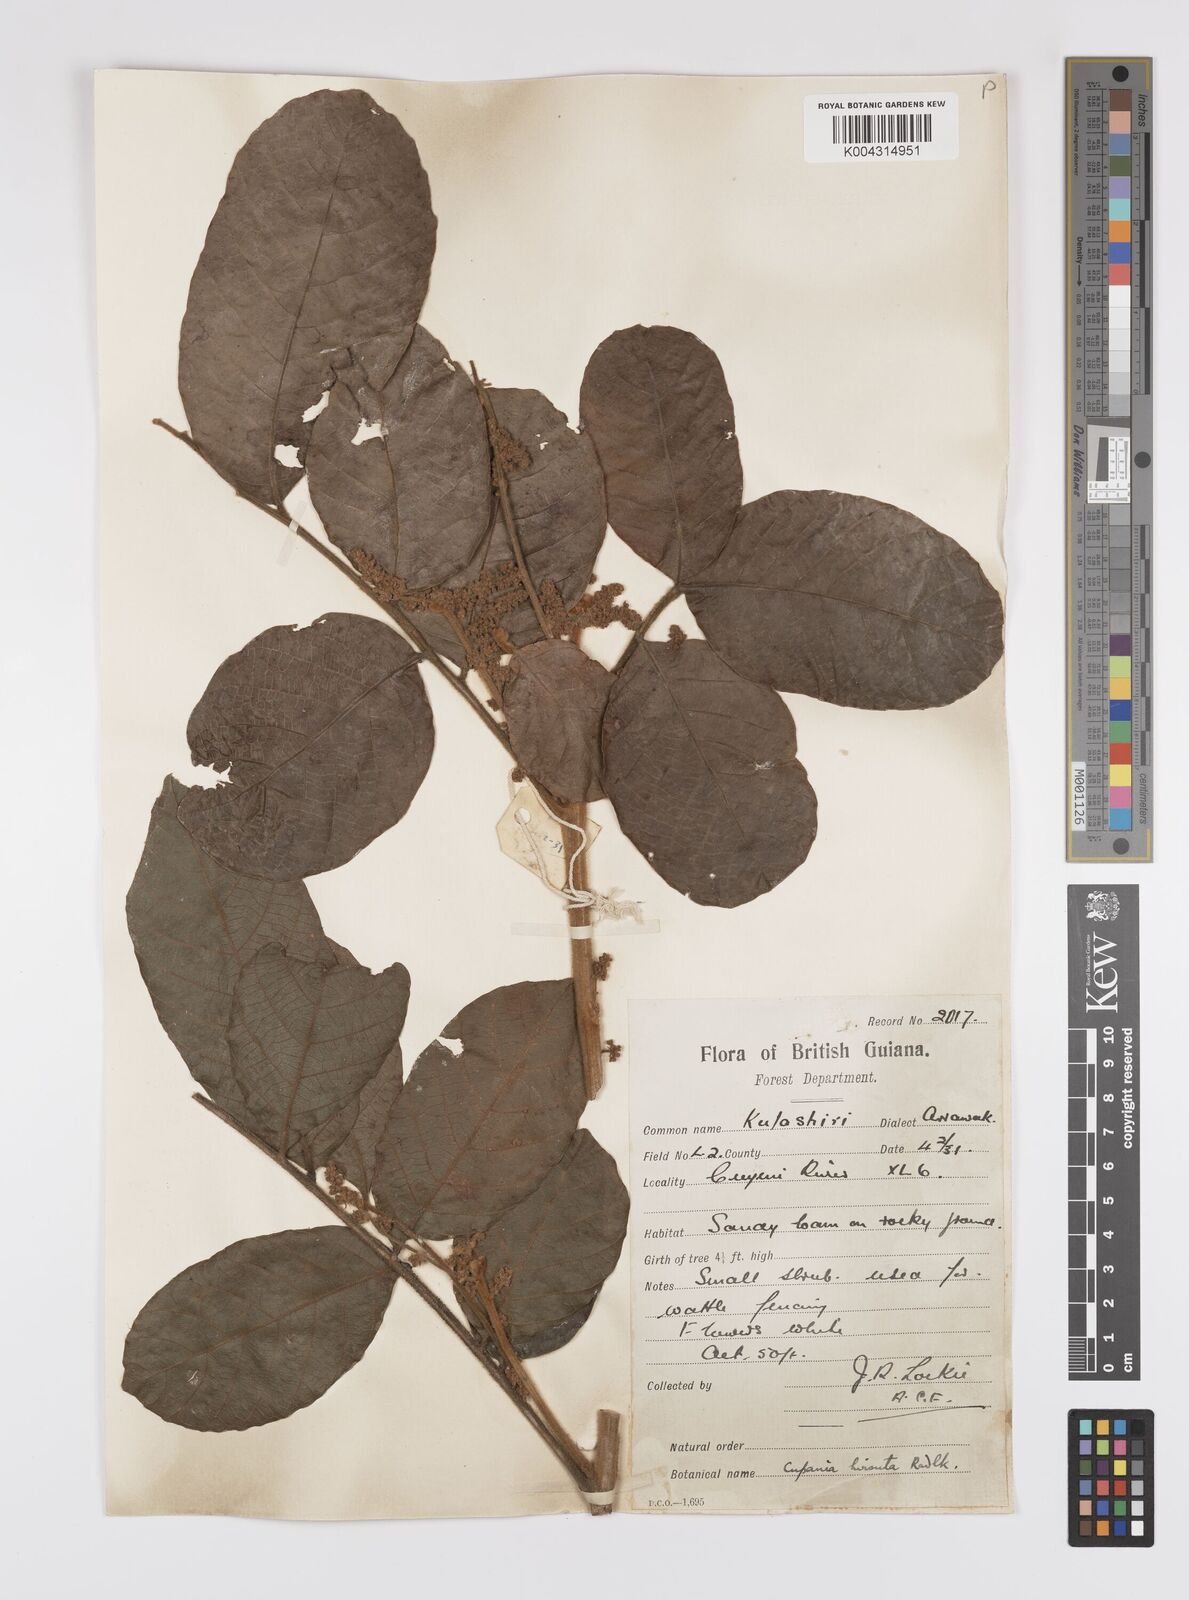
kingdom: Plantae
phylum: Tracheophyta
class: Magnoliopsida
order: Sapindales
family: Sapindaceae
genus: Cupania
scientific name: Cupania hirsuta
